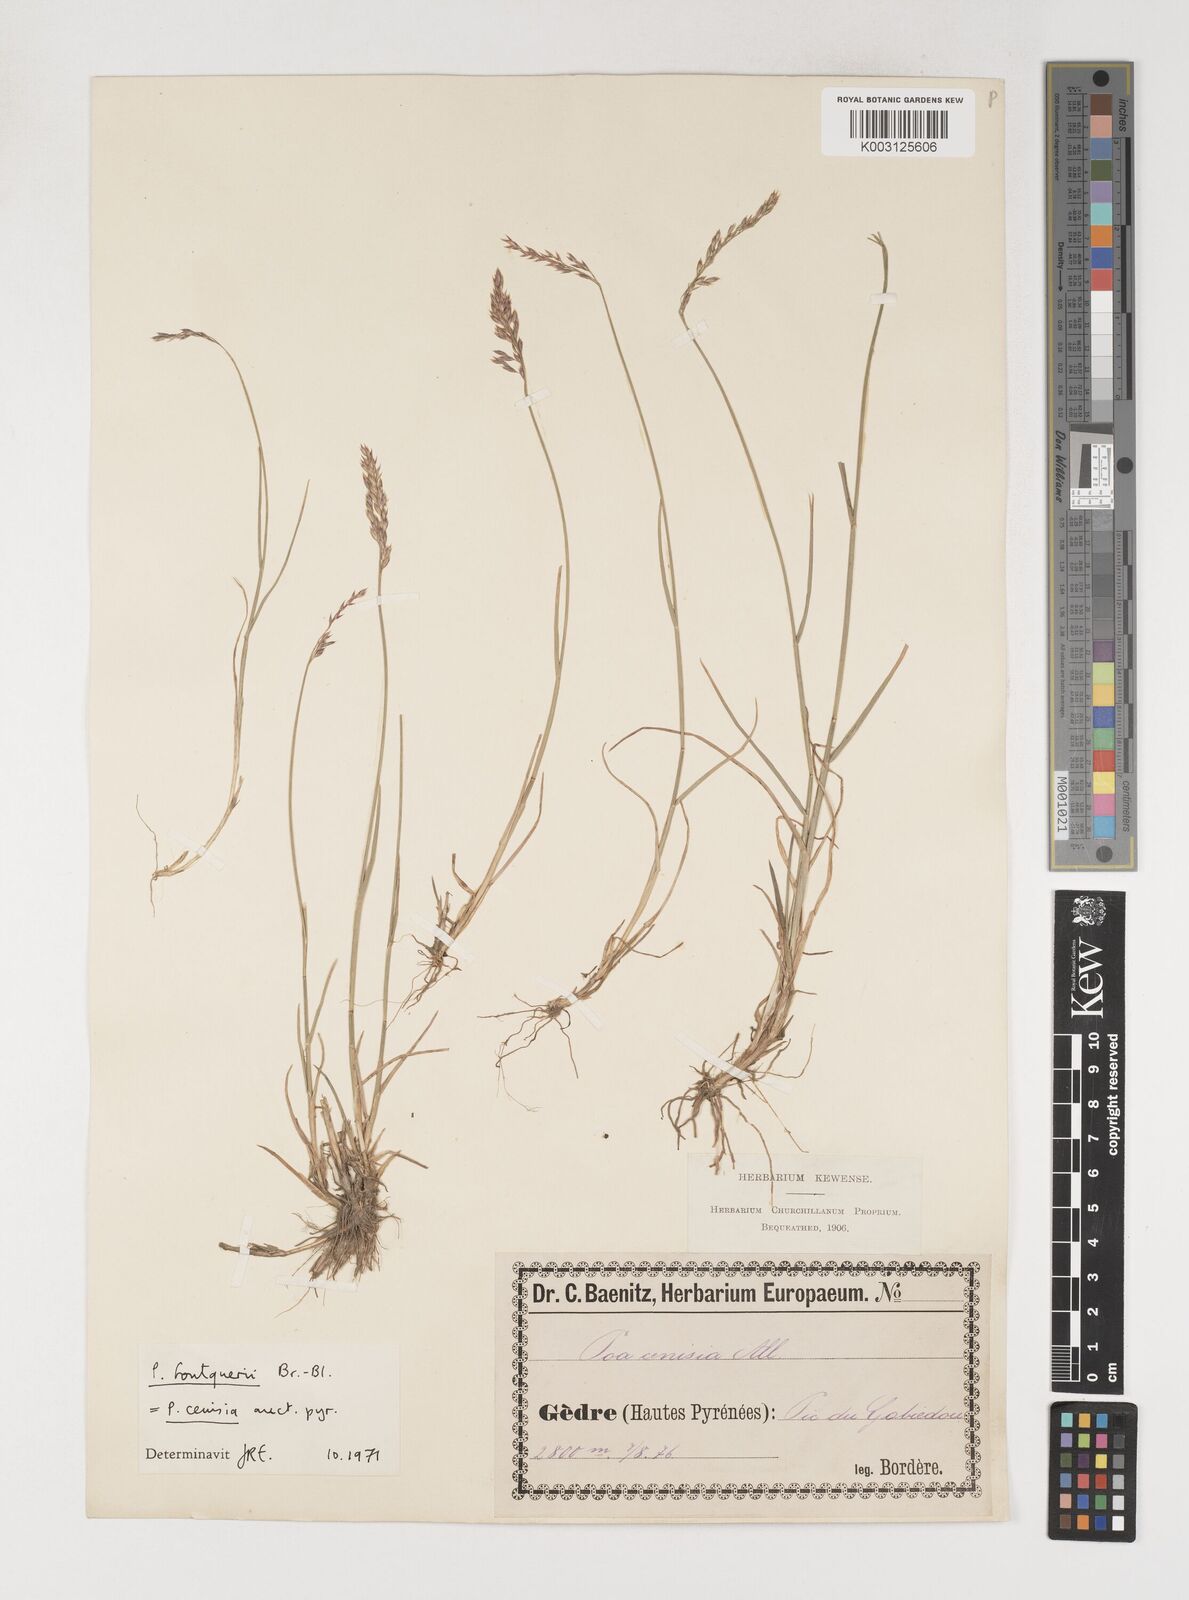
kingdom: Plantae
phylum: Tracheophyta
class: Liliopsida
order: Poales
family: Poaceae
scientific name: Poaceae
